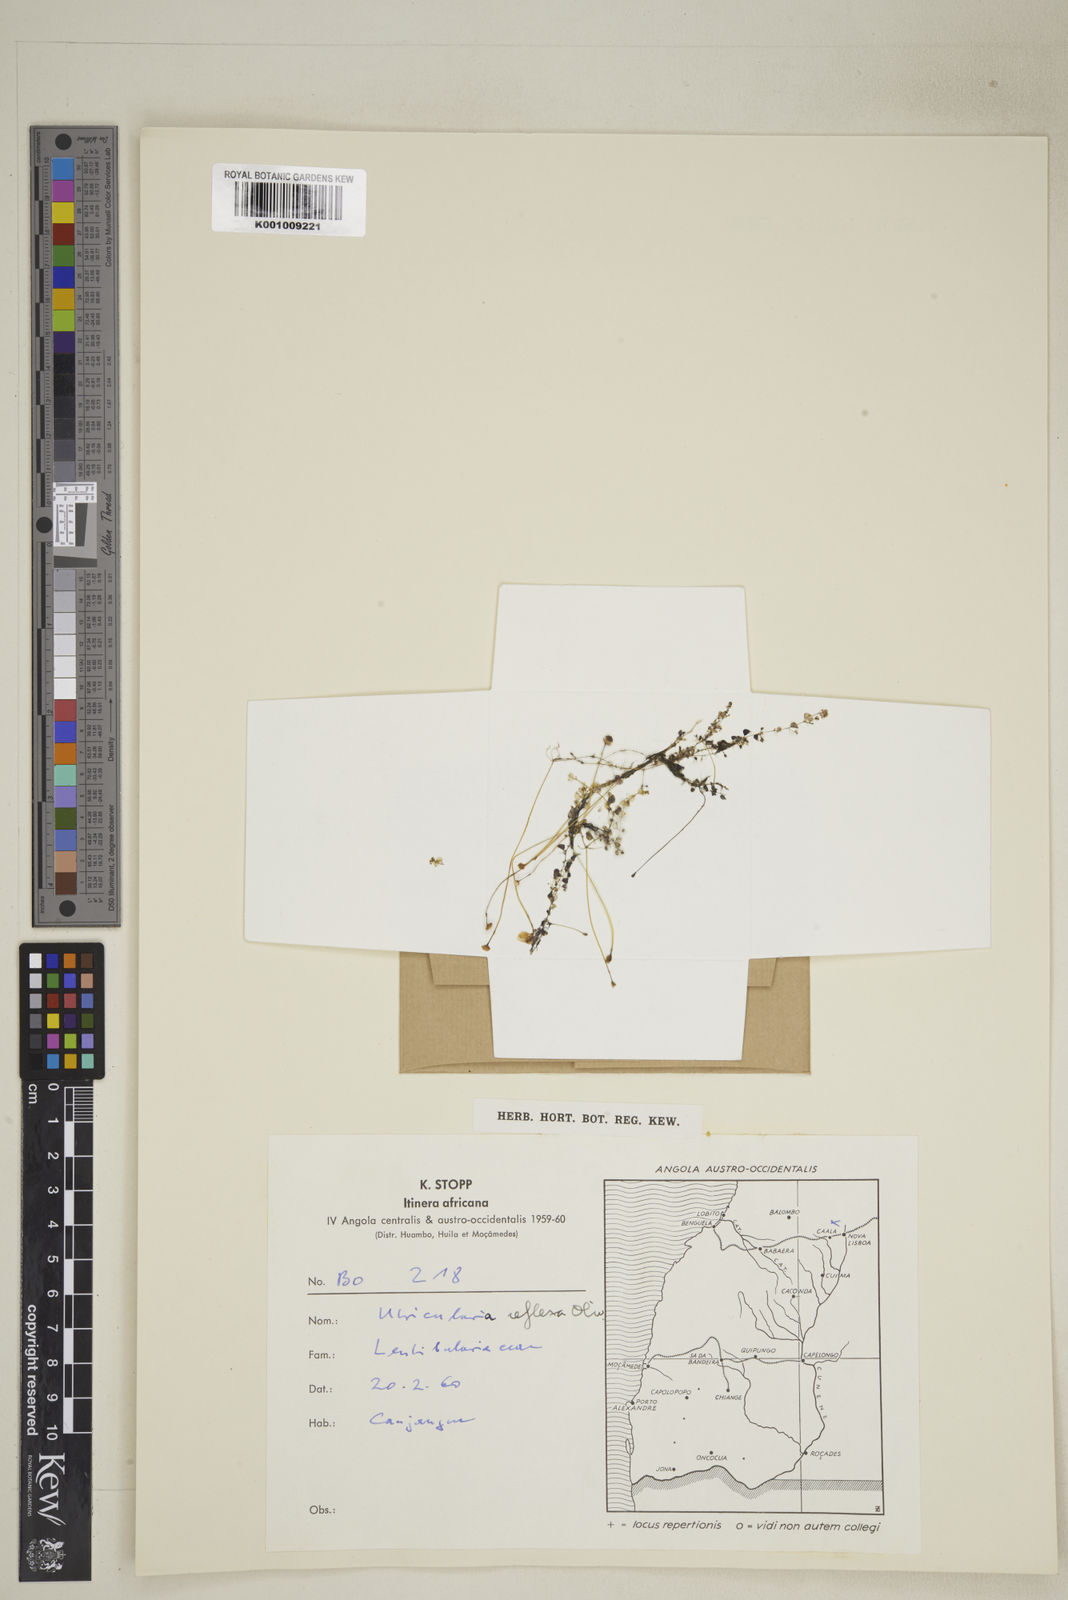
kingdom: Plantae
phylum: Tracheophyta
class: Magnoliopsida
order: Lamiales
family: Lentibulariaceae
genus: Utricularia
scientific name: Utricularia reflexa
